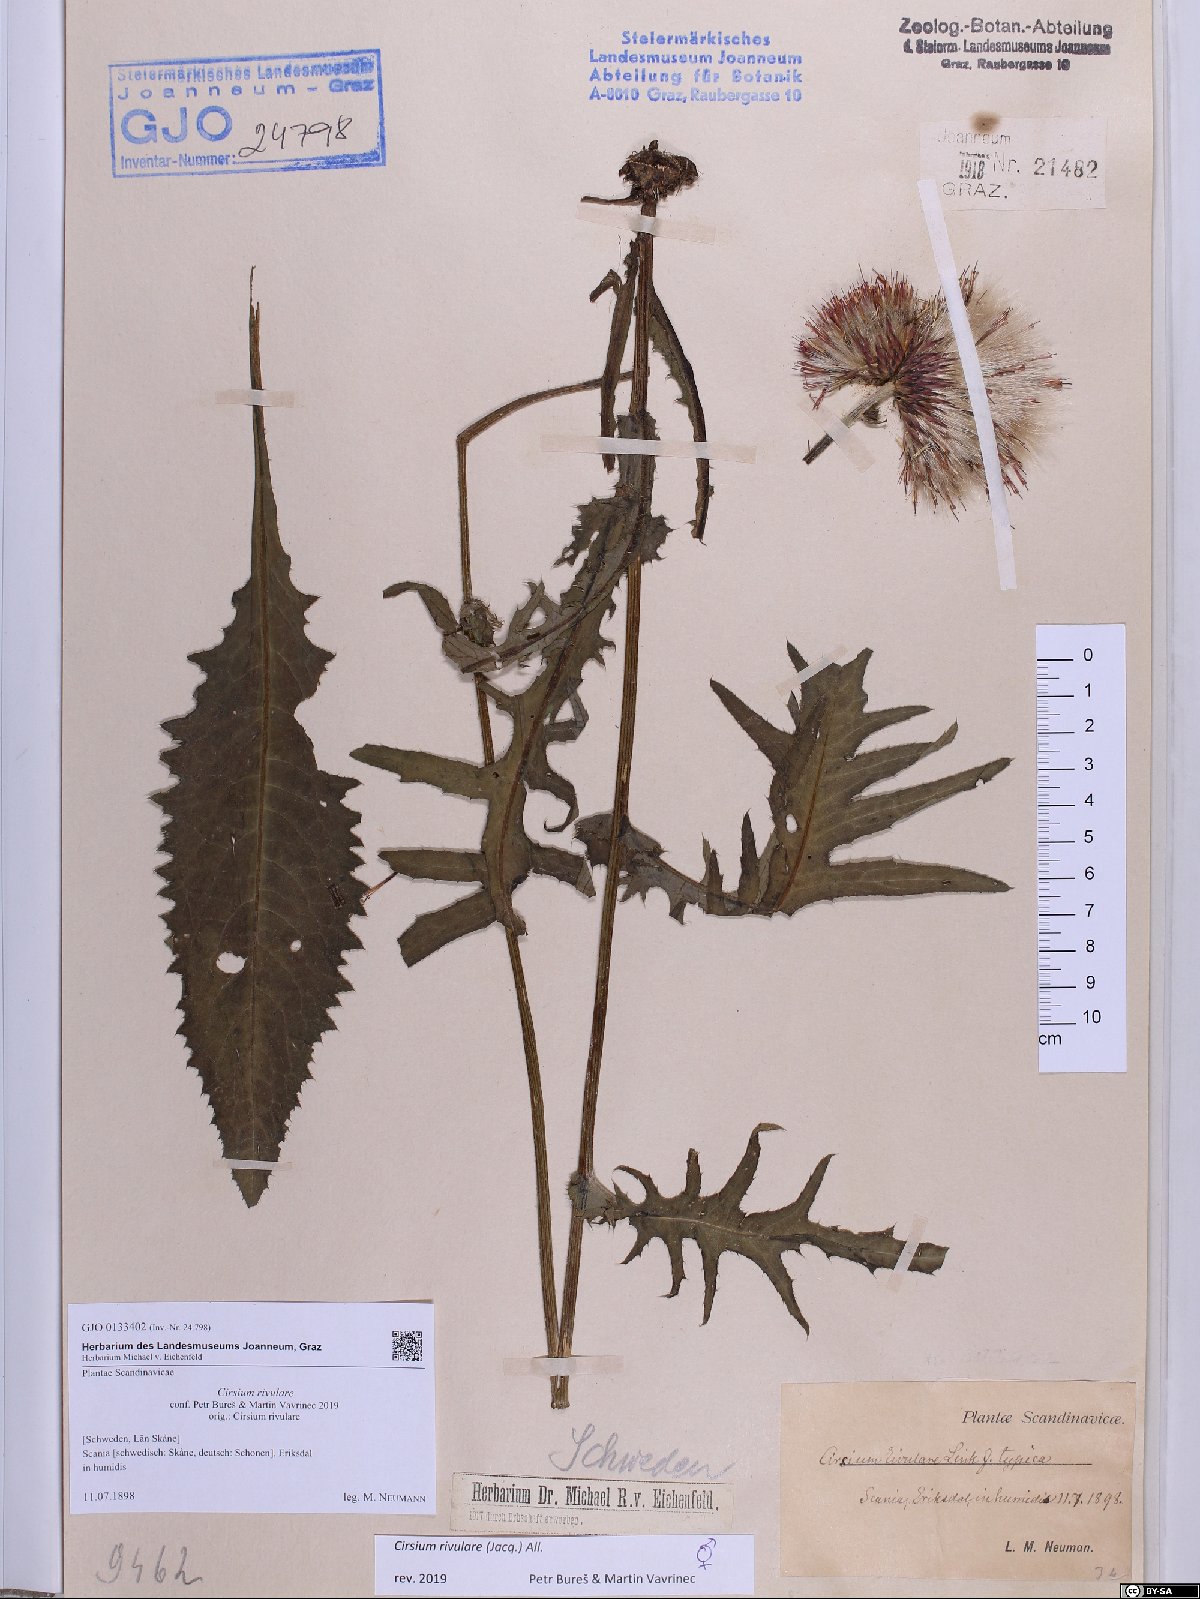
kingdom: Plantae
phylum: Tracheophyta
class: Magnoliopsida
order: Asterales
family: Asteraceae
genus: Cirsium
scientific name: Cirsium rivulare
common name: Brook thistle
